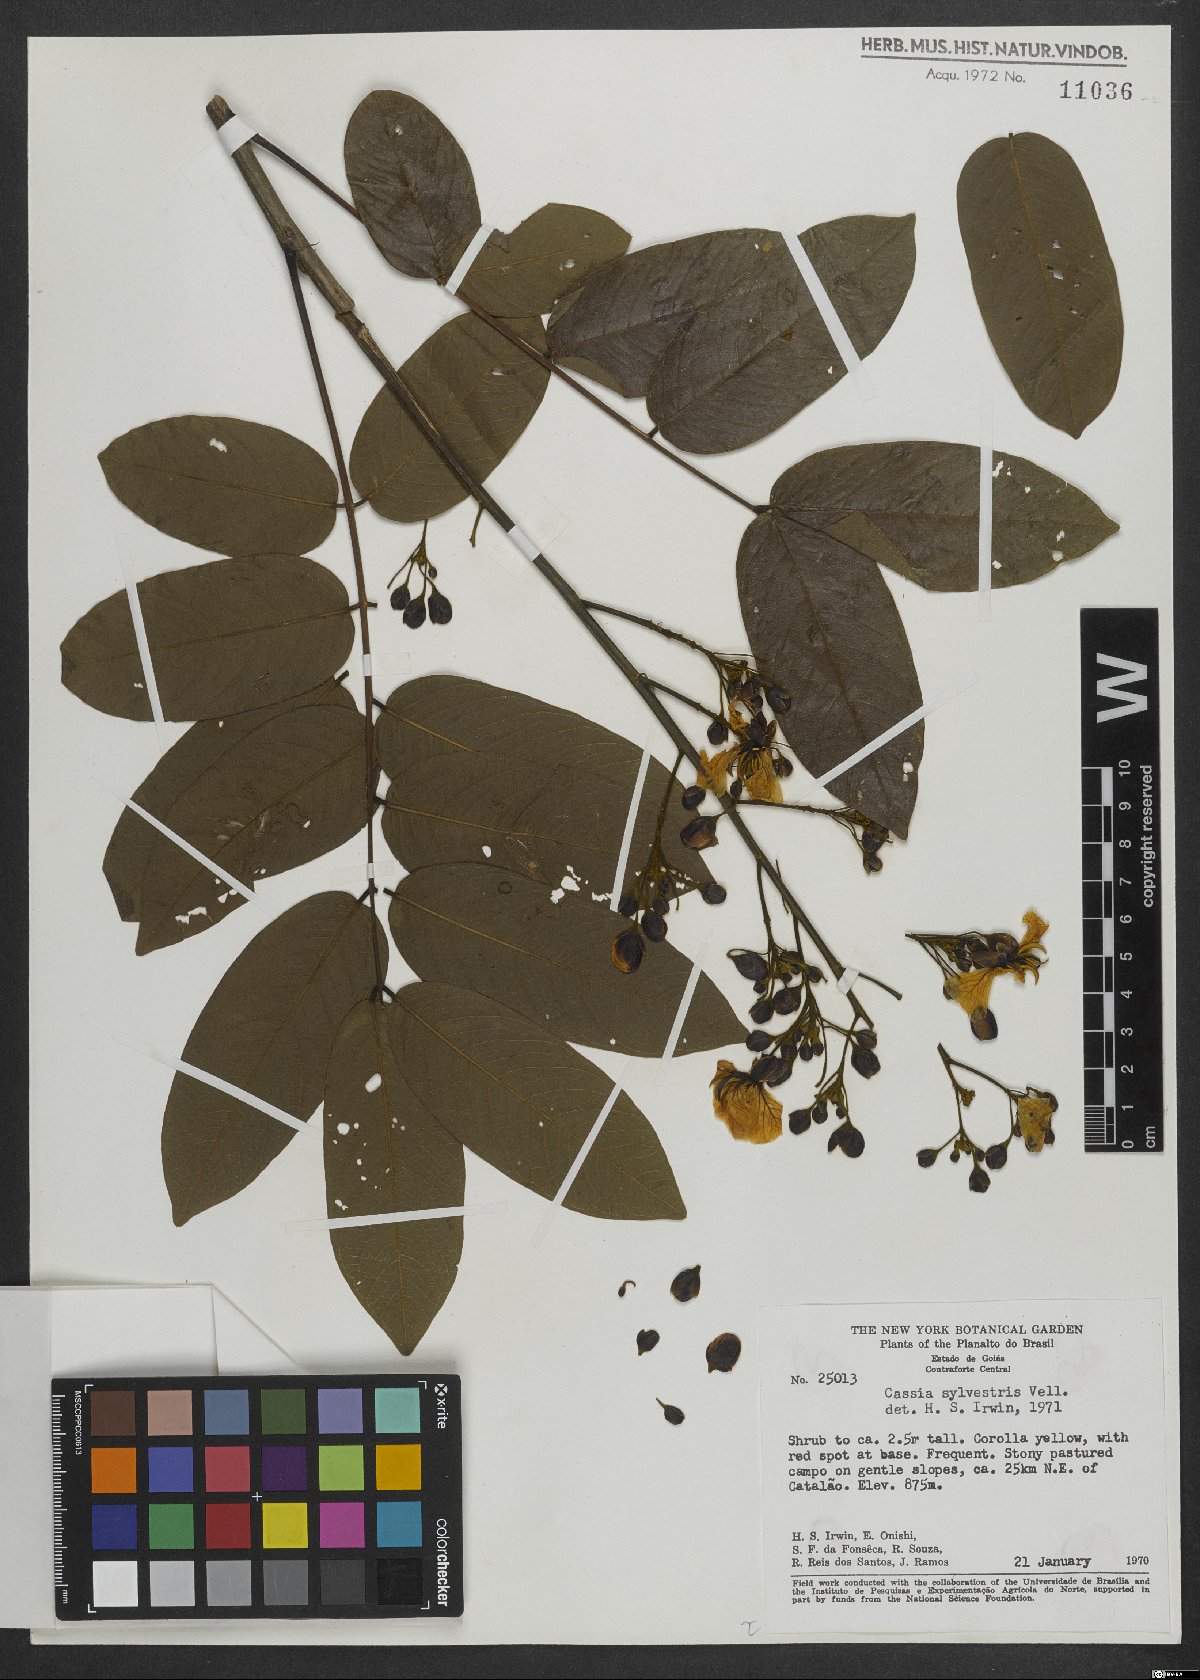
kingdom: Plantae
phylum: Tracheophyta
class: Magnoliopsida
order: Fabales
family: Fabaceae
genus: Senna
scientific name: Senna silvestris
